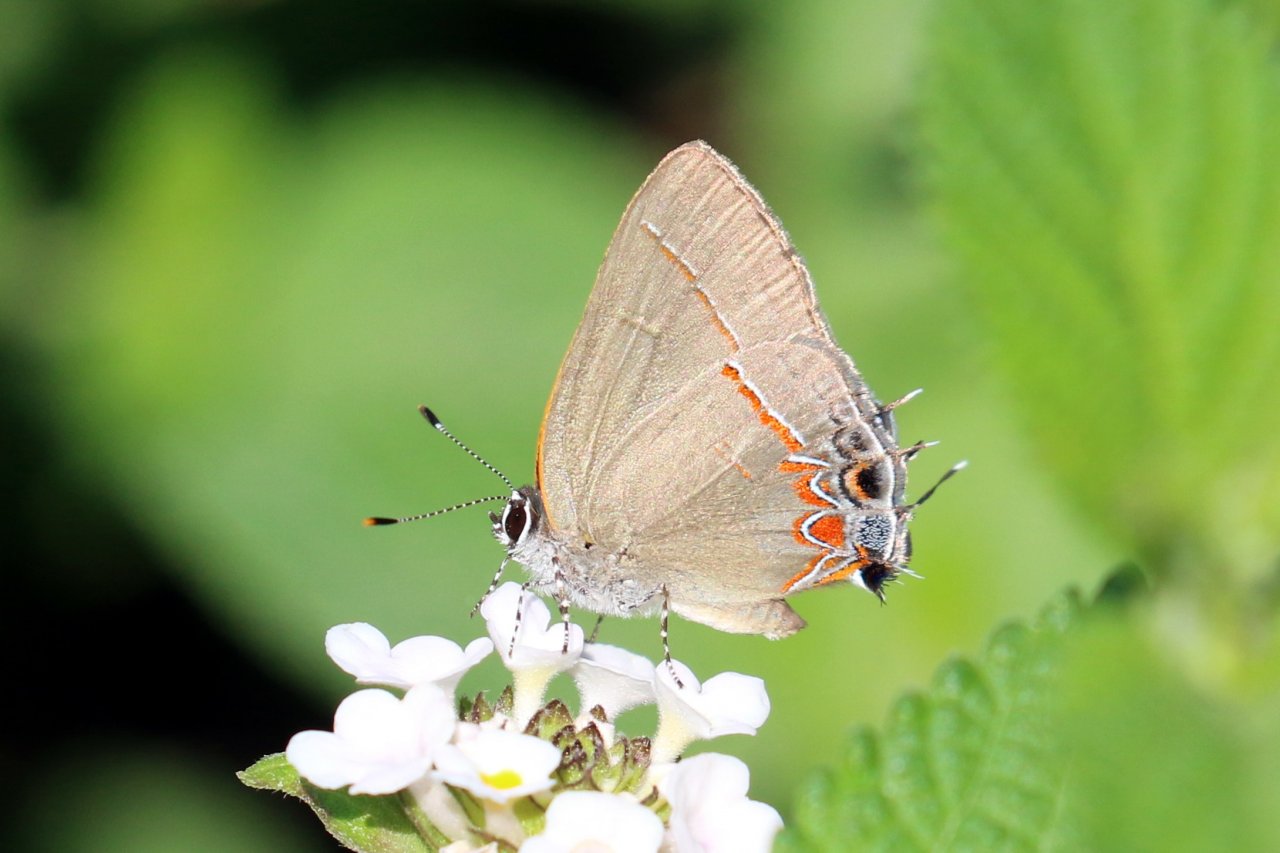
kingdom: Animalia
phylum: Arthropoda
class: Insecta
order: Lepidoptera
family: Lycaenidae
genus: Calycopis
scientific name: Calycopis isobeon
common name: Dusky-blue Groundstreak
